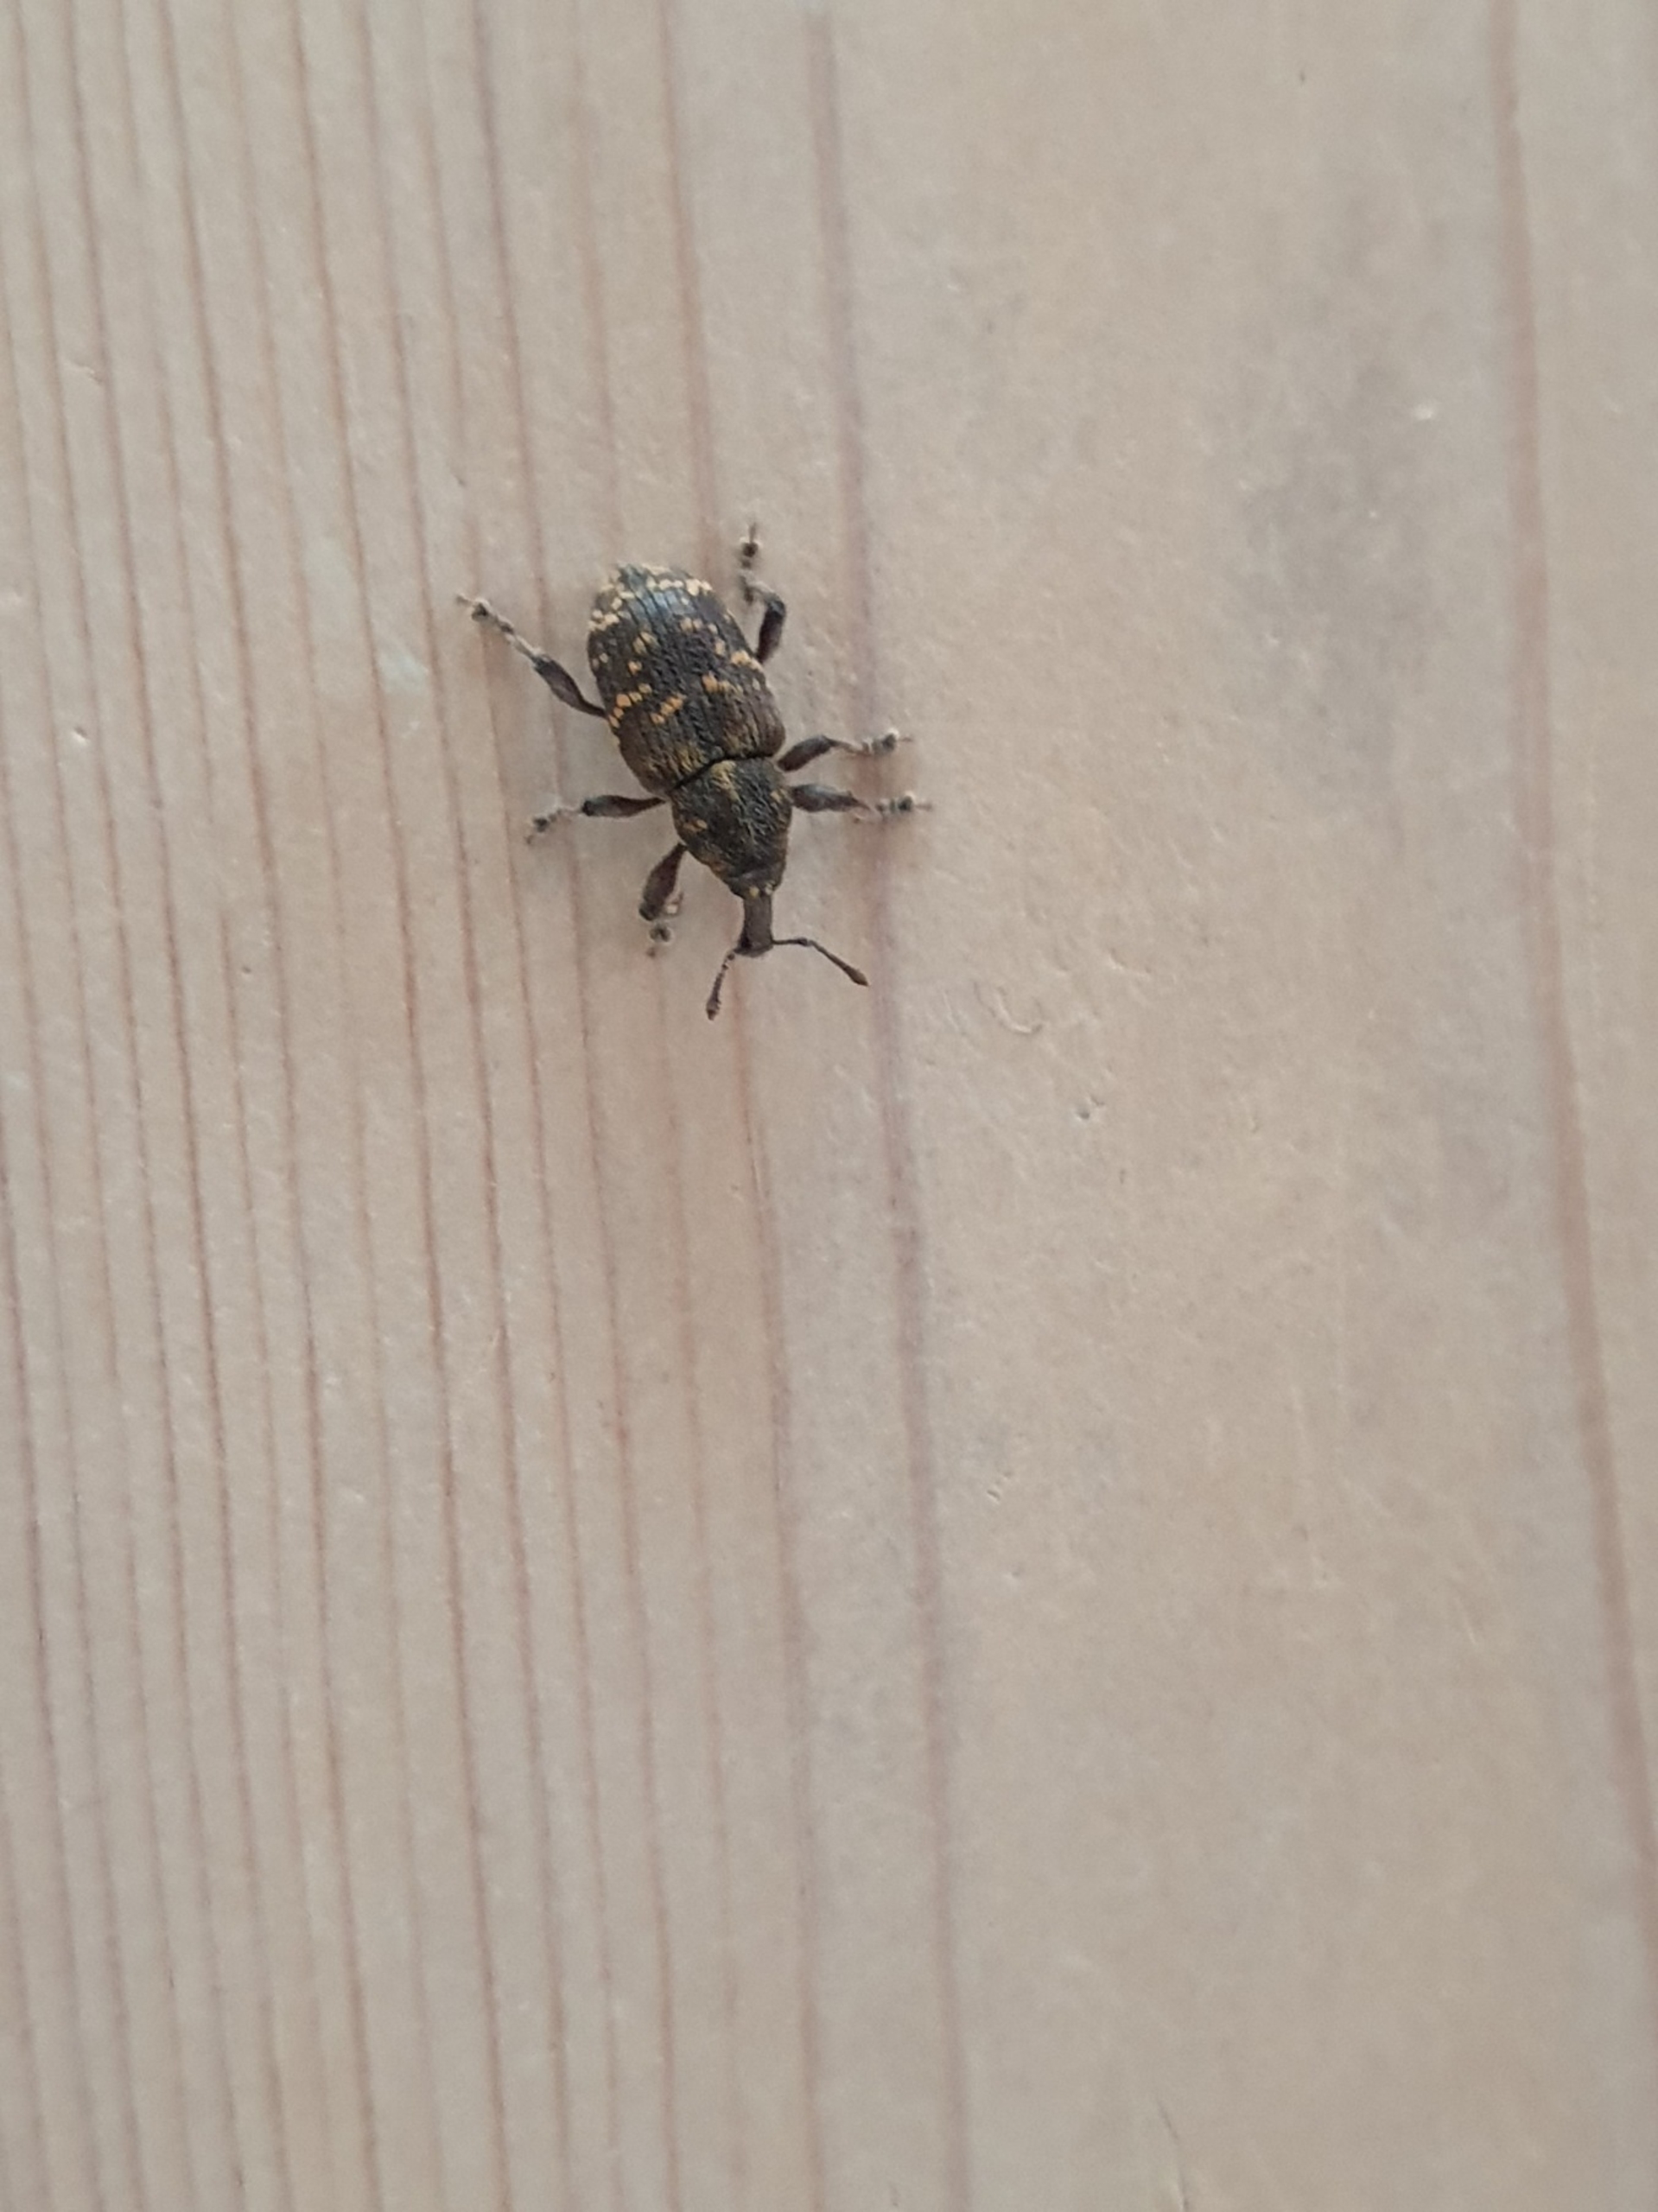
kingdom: Animalia
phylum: Arthropoda
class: Insecta
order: Coleoptera
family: Curculionidae
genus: Hylobius
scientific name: Hylobius abietis
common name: Stor nåletræsnudebille
